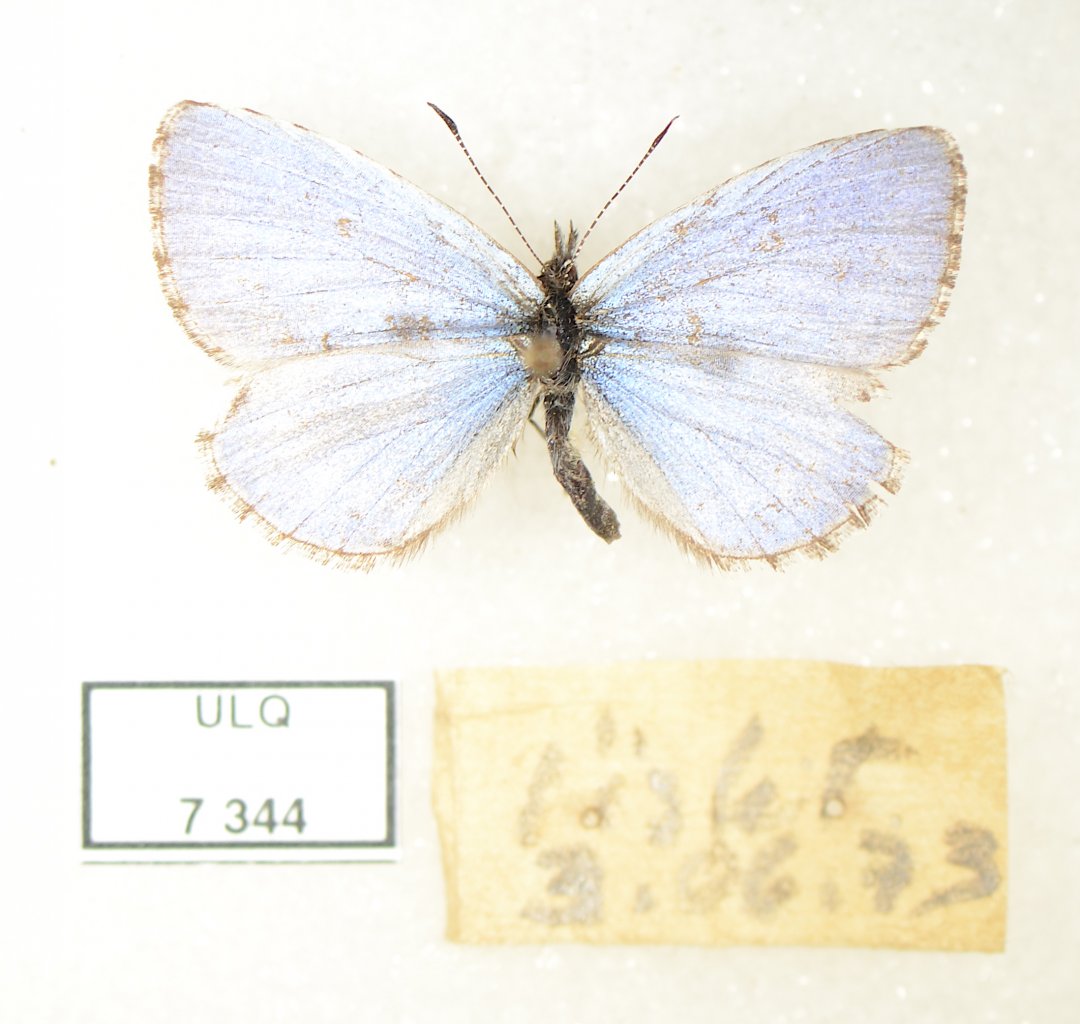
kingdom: Animalia
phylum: Arthropoda
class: Insecta
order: Lepidoptera
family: Lycaenidae
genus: Celastrina
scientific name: Celastrina lucia
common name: Northern Spring Azure
